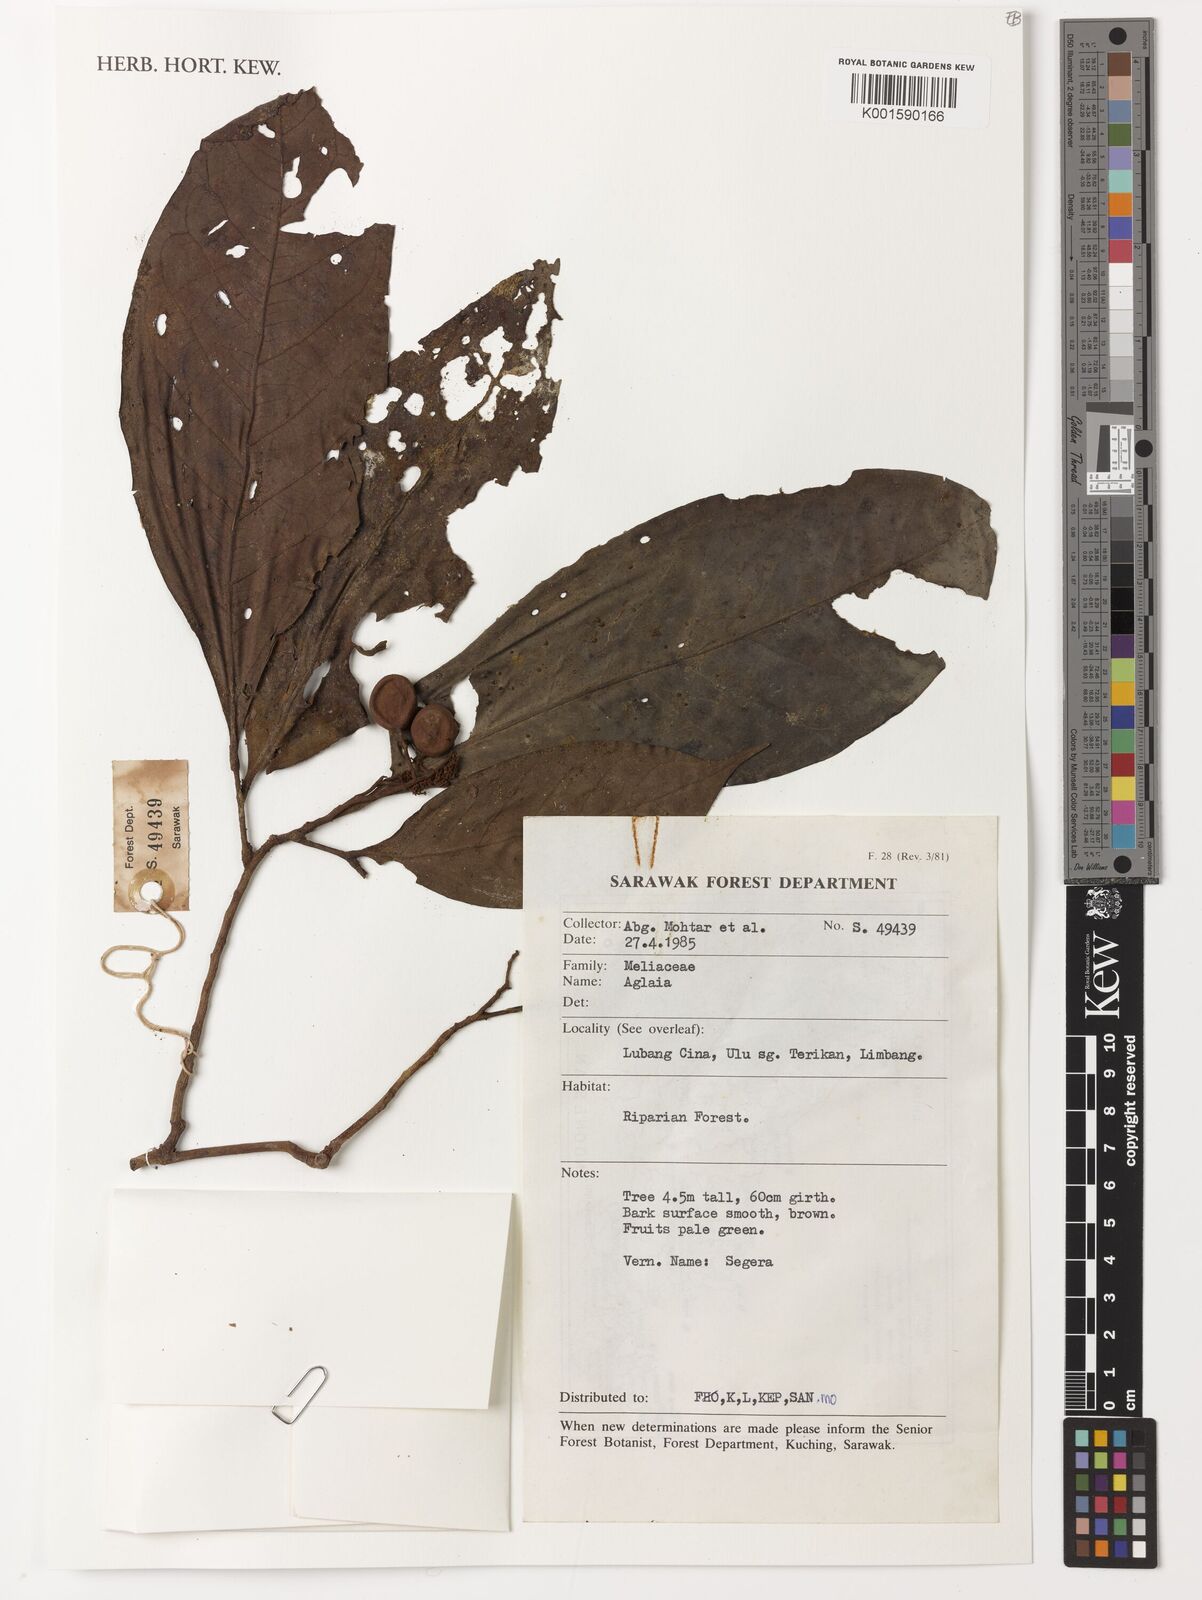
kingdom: Plantae
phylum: Tracheophyta
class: Magnoliopsida
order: Sapindales
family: Meliaceae
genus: Aglaia
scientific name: Aglaia
